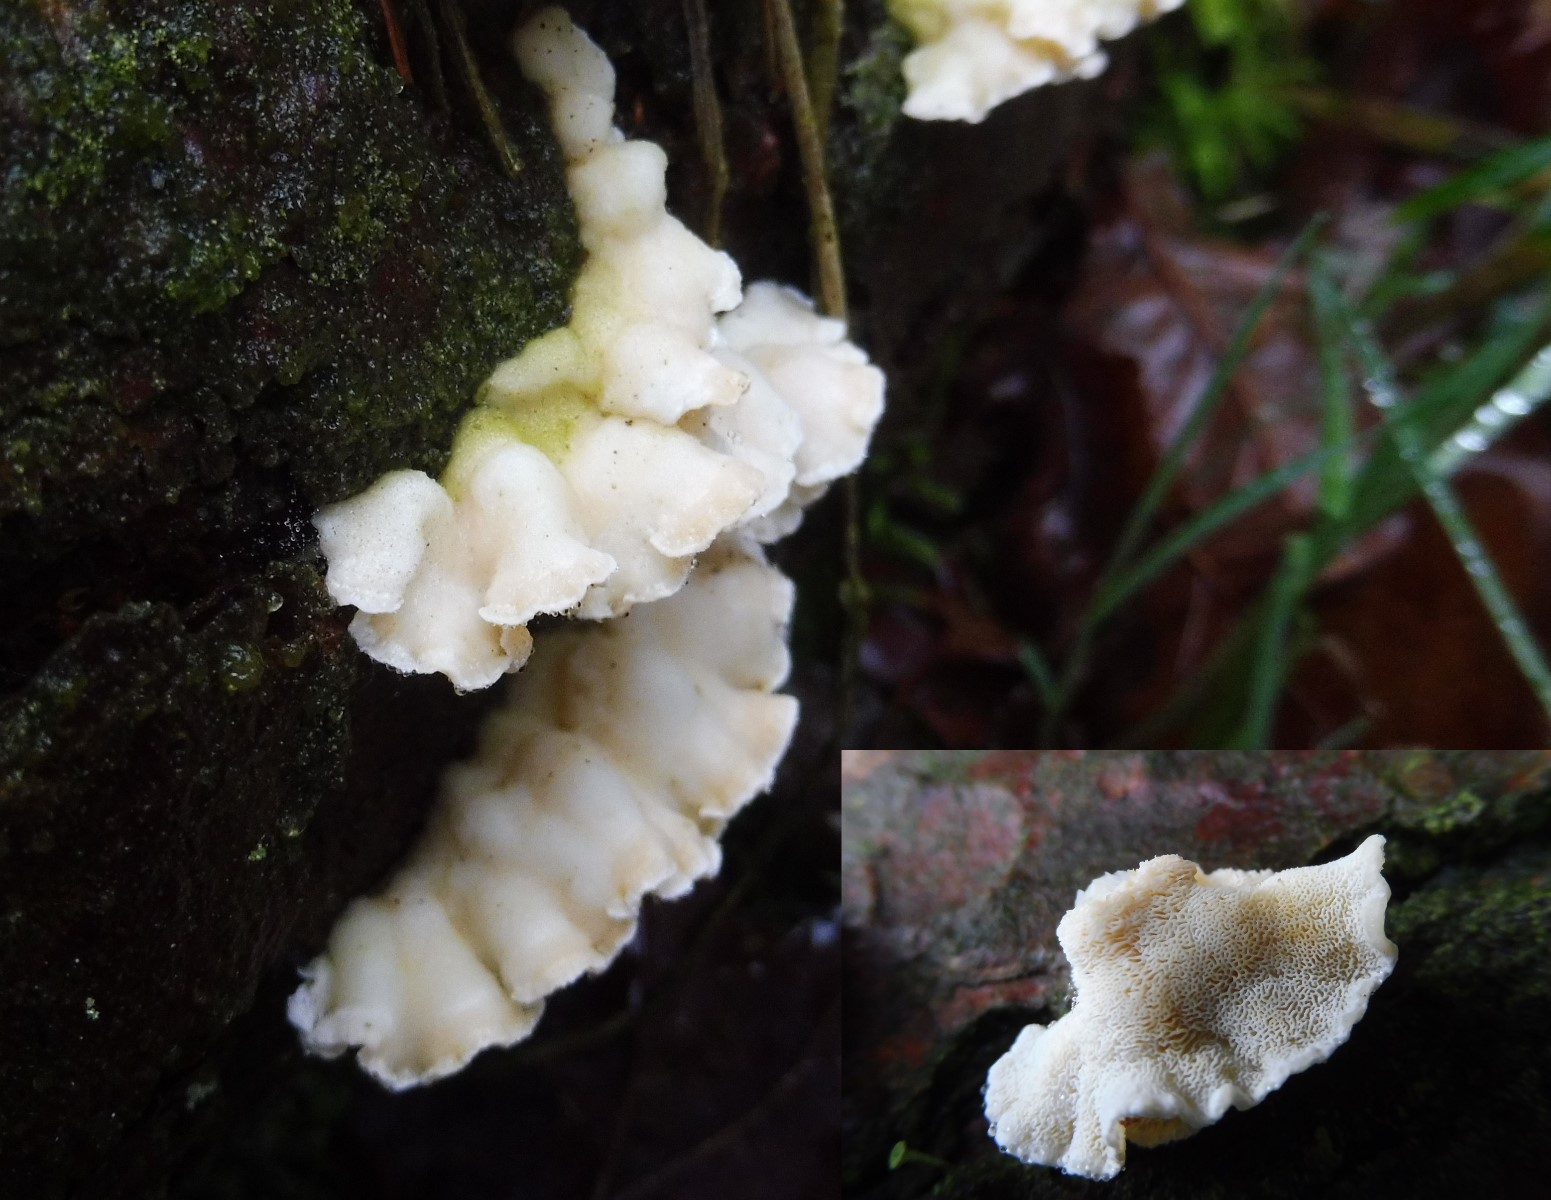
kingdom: Fungi
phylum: Basidiomycota
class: Agaricomycetes
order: Polyporales
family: Incrustoporiaceae
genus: Skeletocutis
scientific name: Skeletocutis amorpha
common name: orange krystalporesvamp
